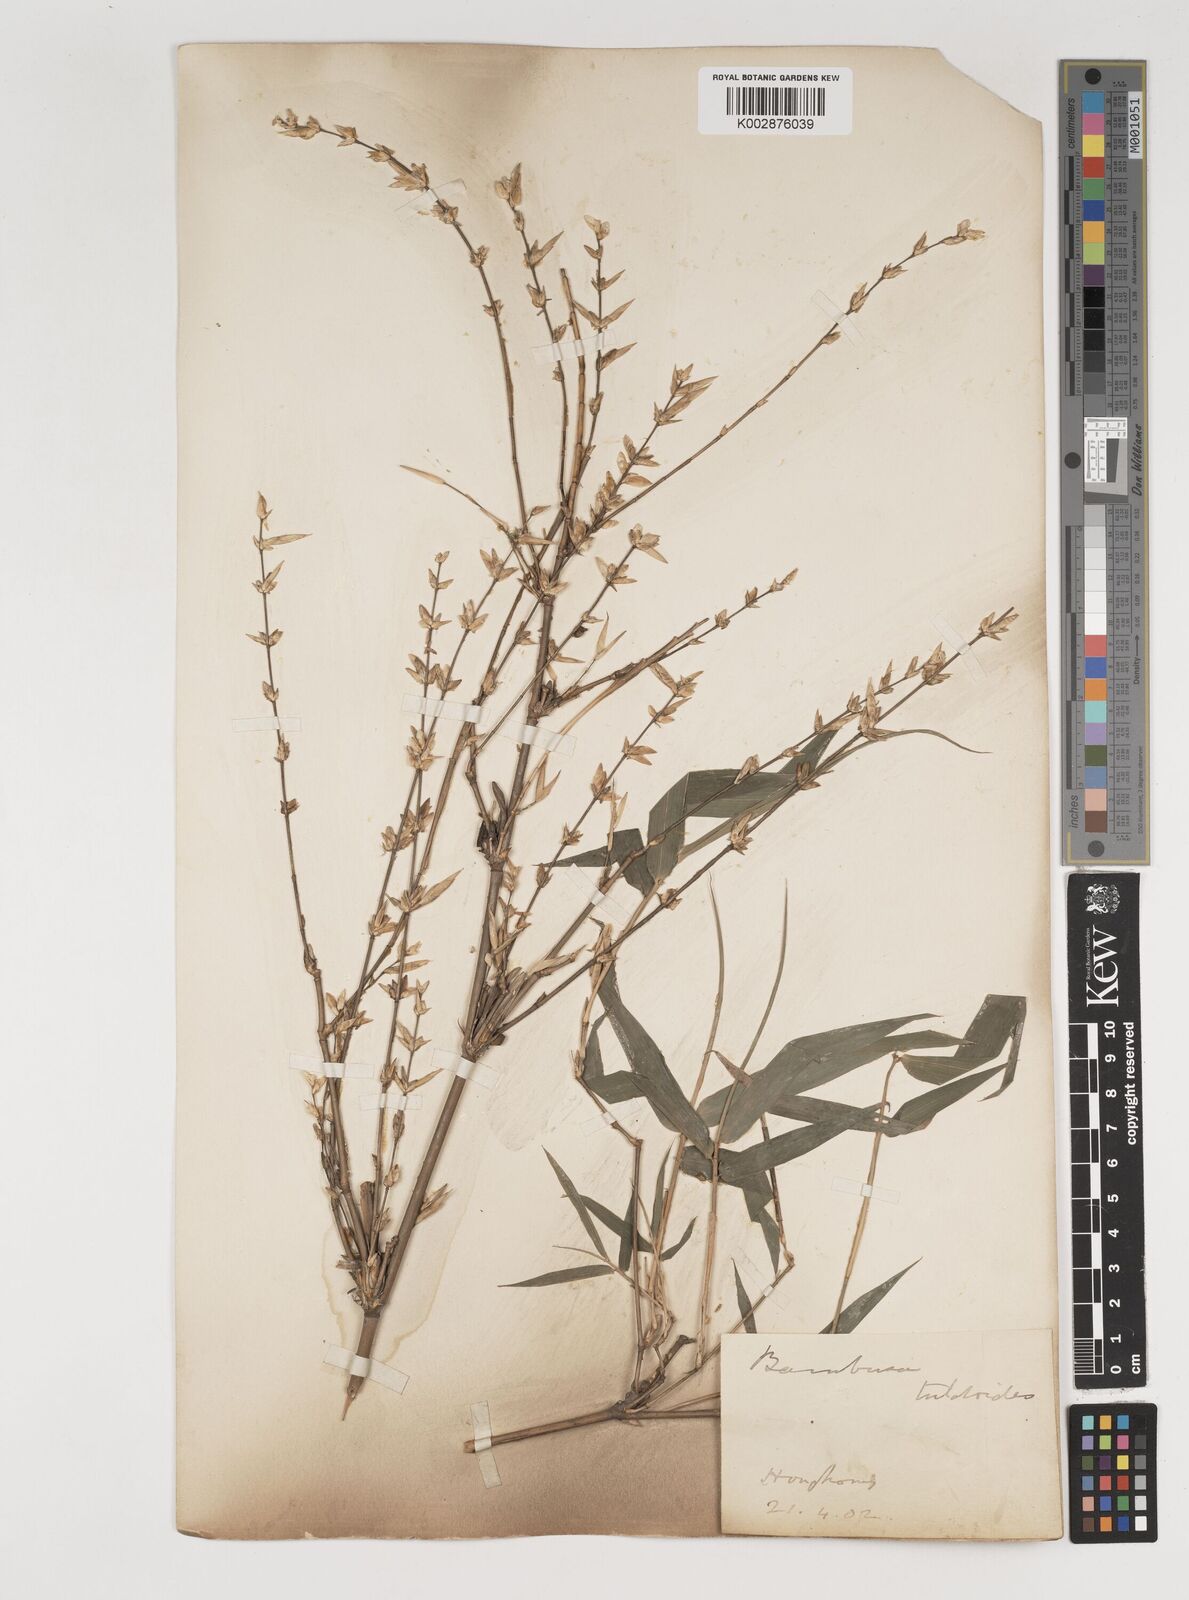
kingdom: Plantae
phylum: Tracheophyta
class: Liliopsida
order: Poales
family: Poaceae
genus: Bambusa
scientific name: Bambusa tuldoides
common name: Verdant bamboo
